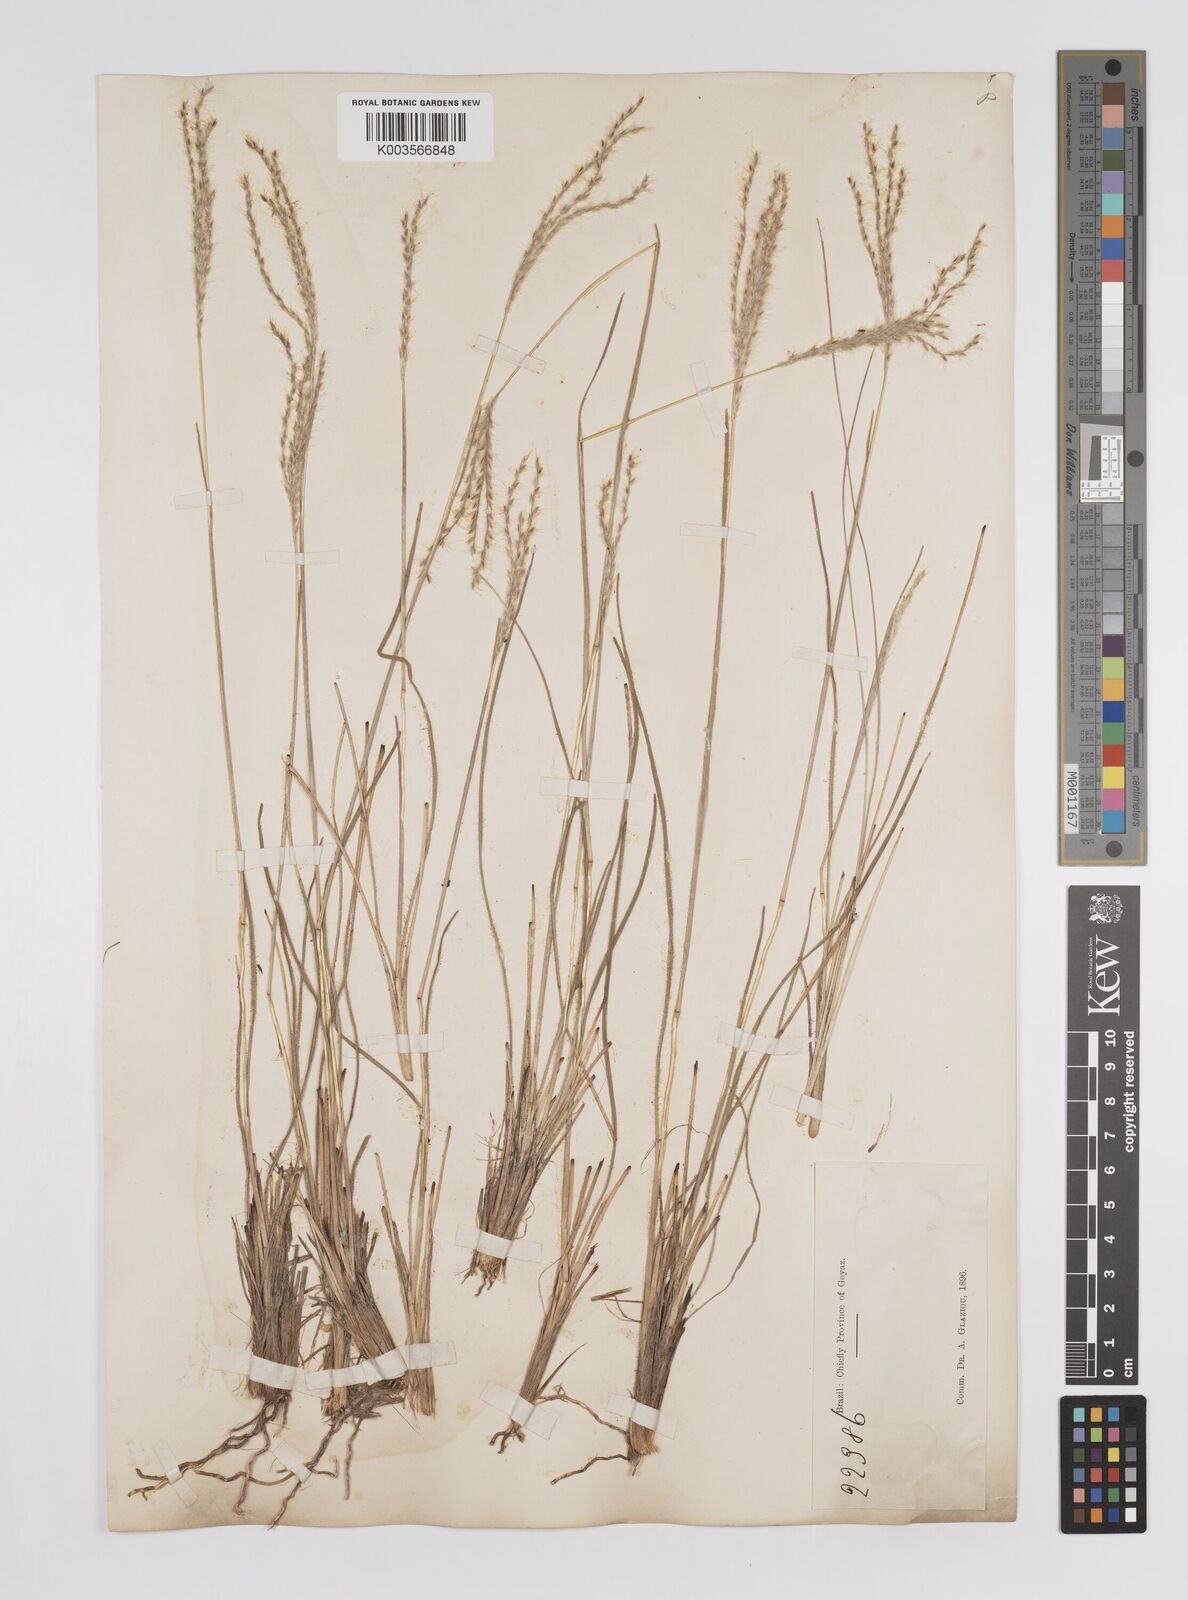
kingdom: Plantae
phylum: Tracheophyta
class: Liliopsida
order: Poales
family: Poaceae
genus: Axonopus
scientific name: Axonopus brasiliensis
